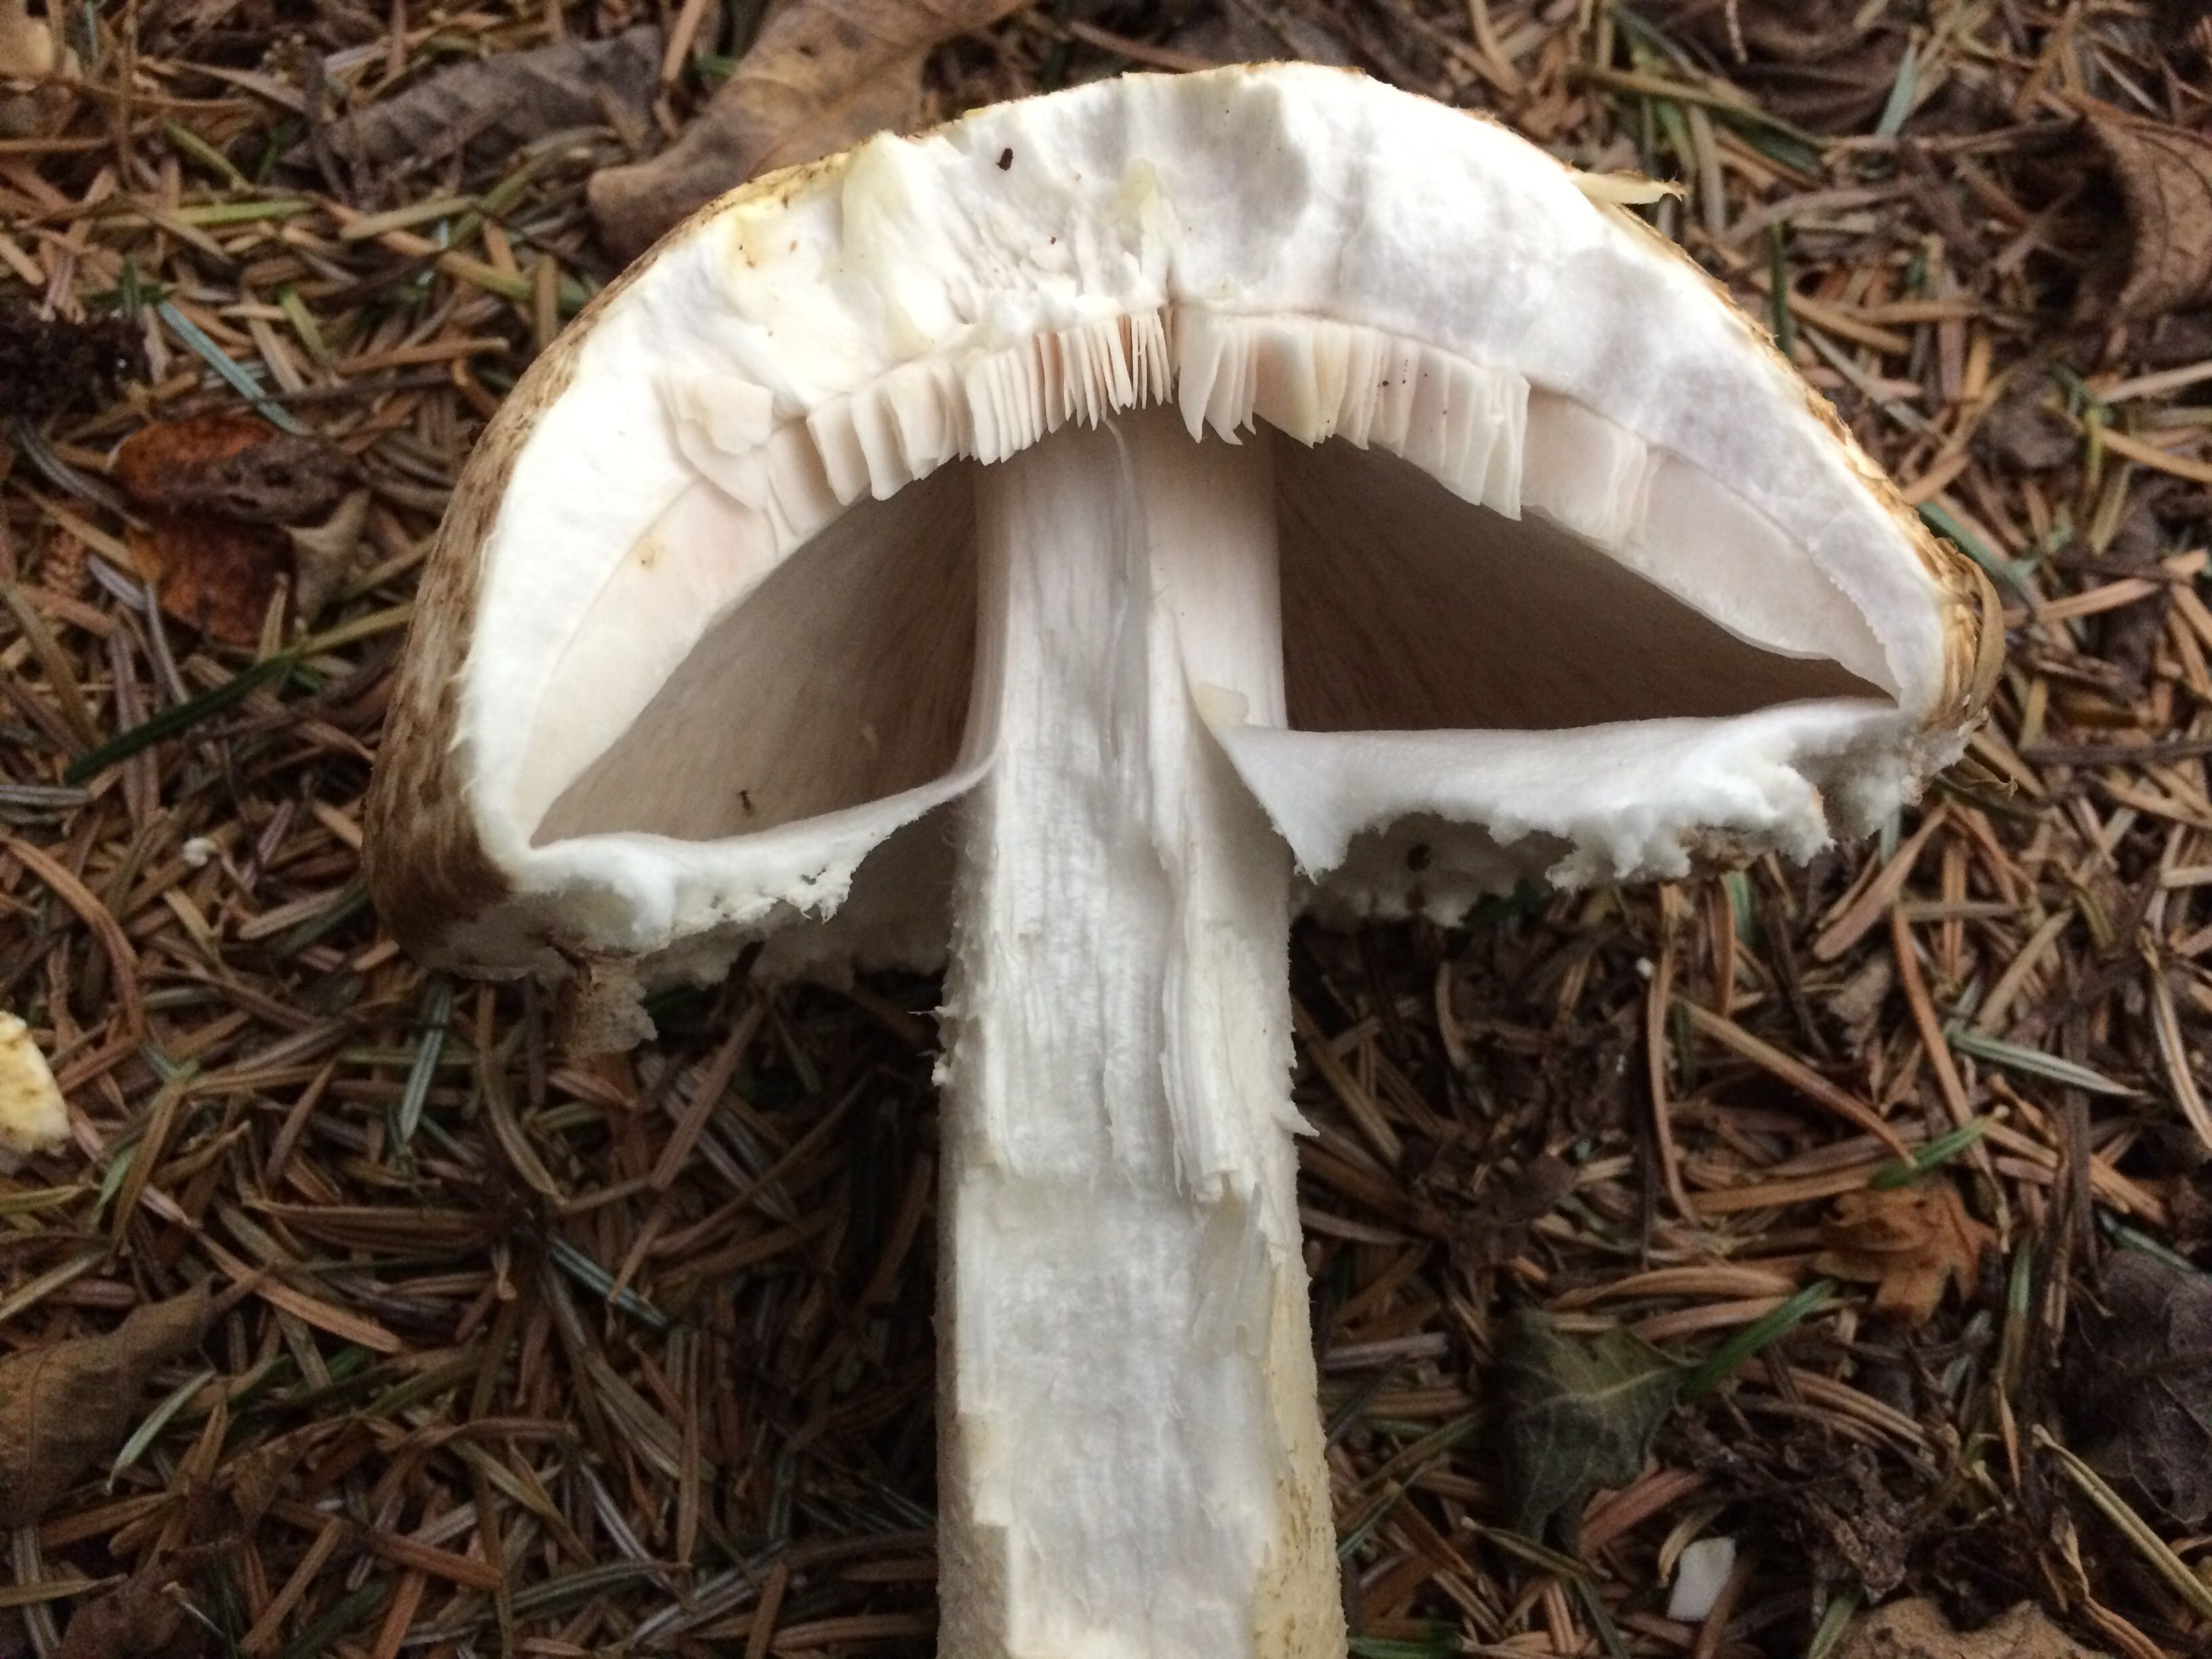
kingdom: Fungi
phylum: Basidiomycota
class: Agaricomycetes
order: Agaricales
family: Agaricaceae
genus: Agaricus
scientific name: Agaricus augustus
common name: prægtig champignon
